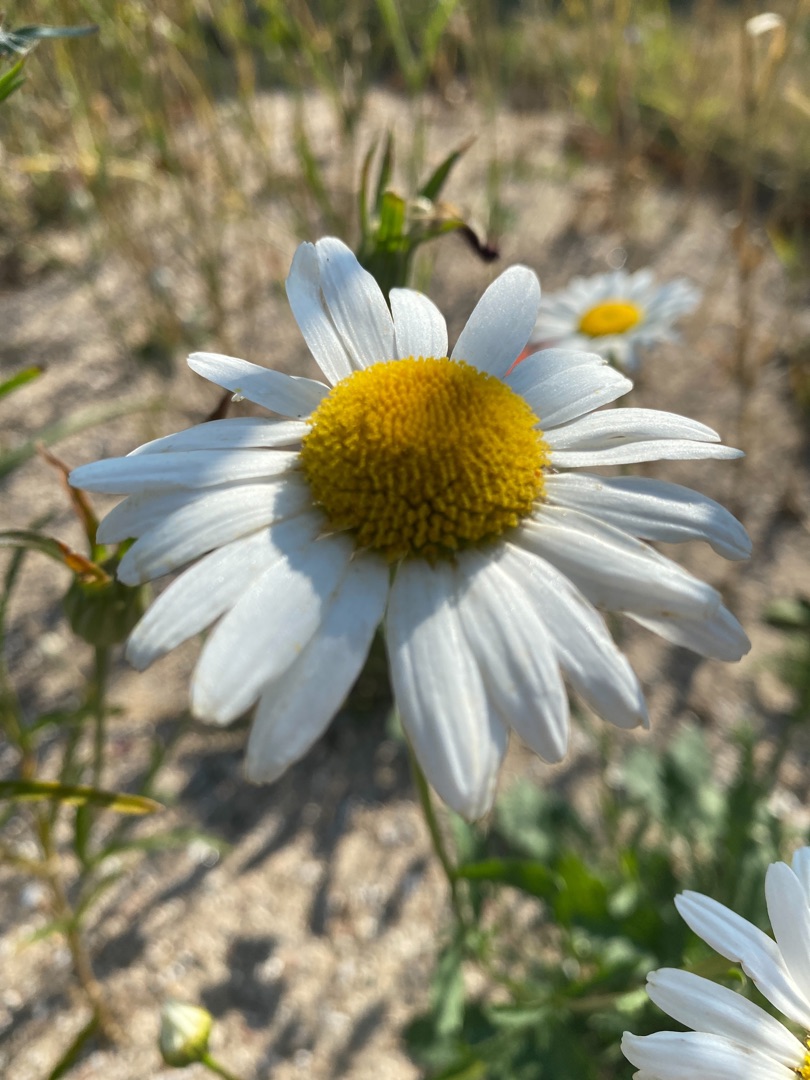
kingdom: Plantae
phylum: Tracheophyta
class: Magnoliopsida
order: Asterales
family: Asteraceae
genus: Leucanthemum
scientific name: Leucanthemum vulgare
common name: Hvid okseøje
